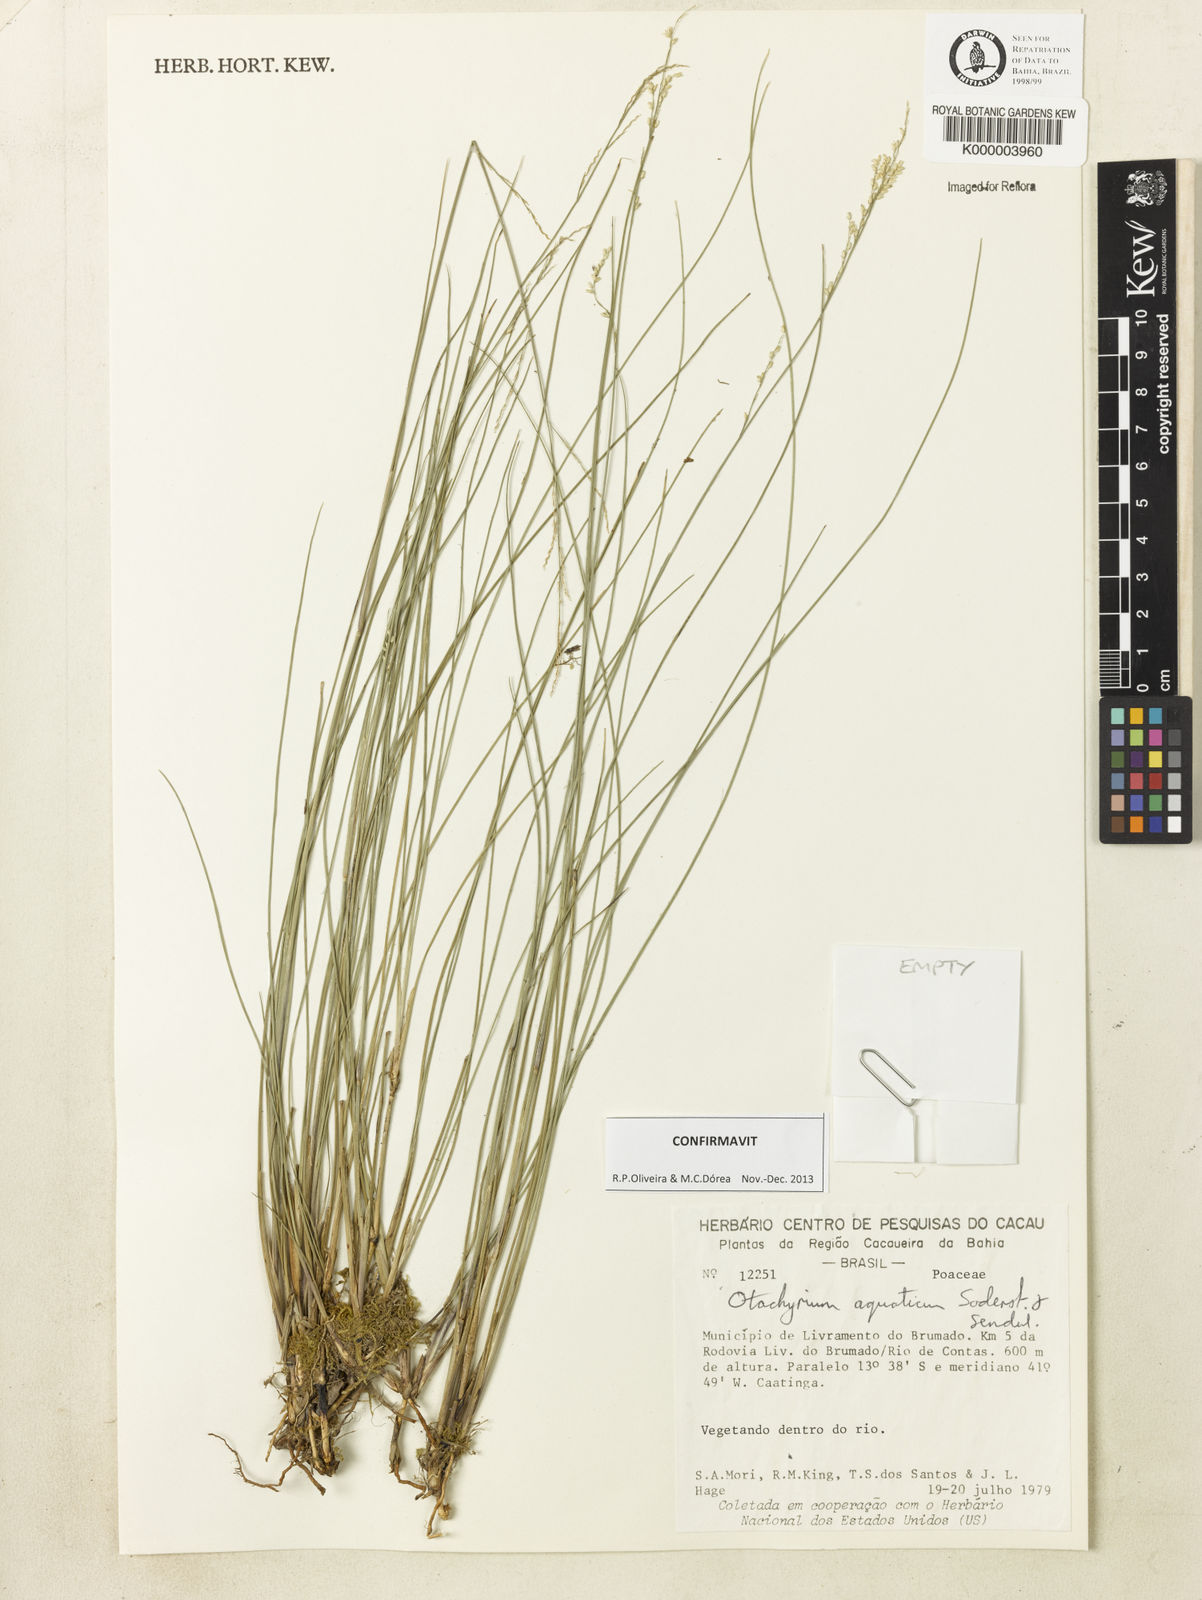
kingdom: Plantae
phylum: Tracheophyta
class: Liliopsida
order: Poales
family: Poaceae
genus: Otachyrium
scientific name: Otachyrium aquaticum
